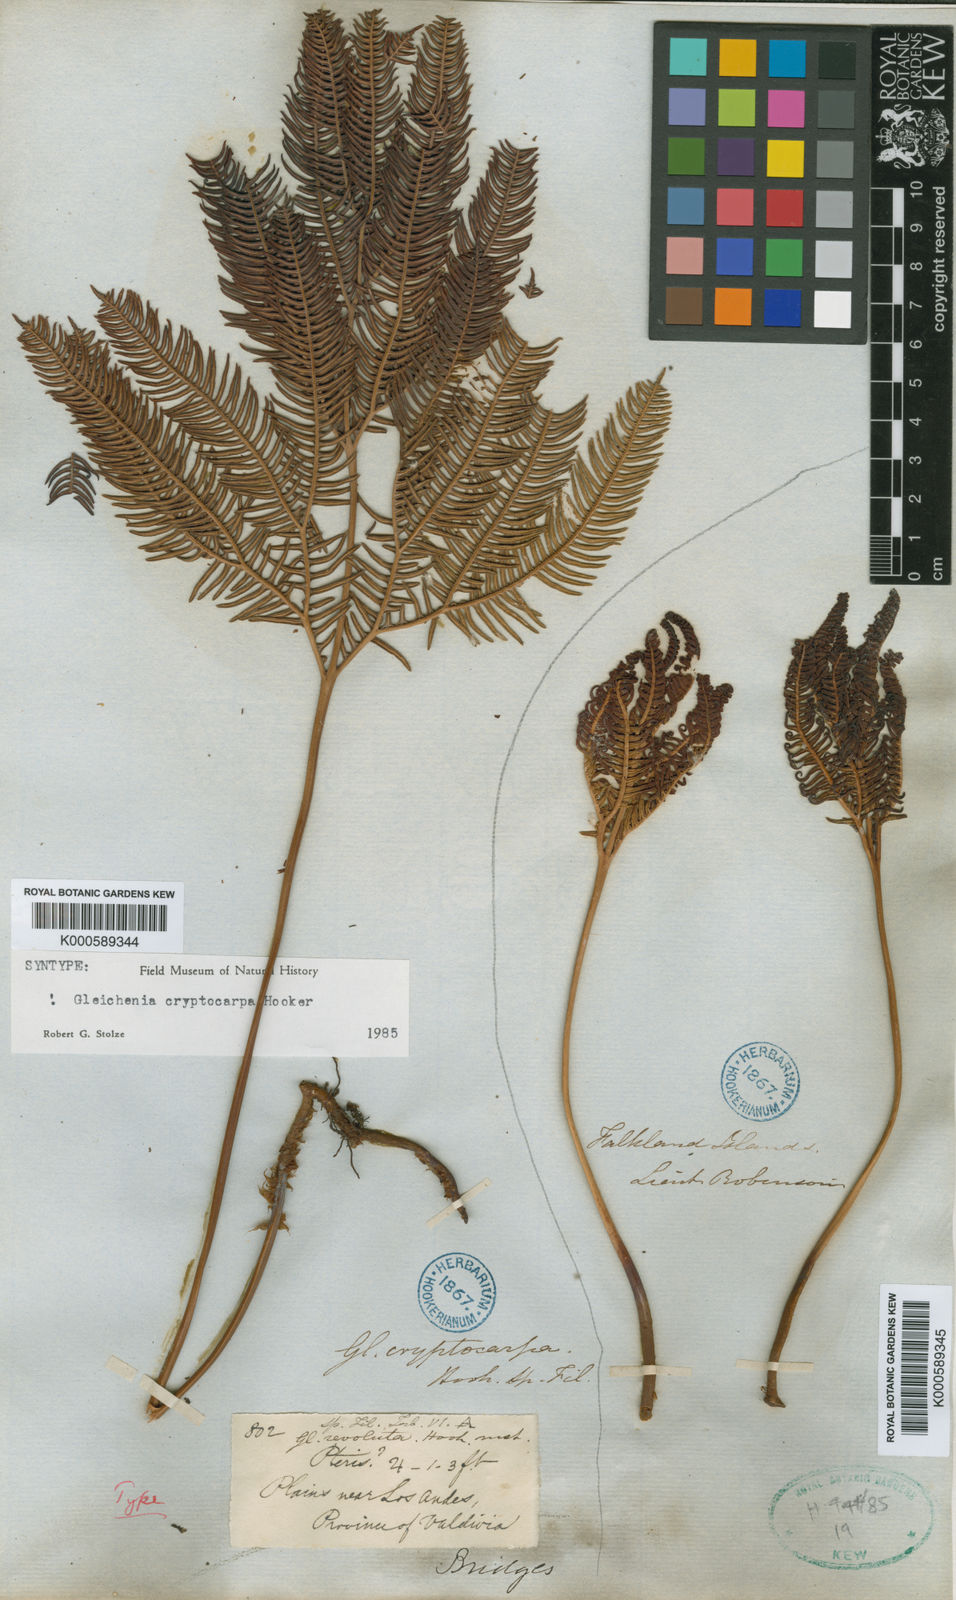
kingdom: Plantae
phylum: Tracheophyta
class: Polypodiopsida
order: Gleicheniales
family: Gleicheniaceae
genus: Sticherus
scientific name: Sticherus cryptocarpus
